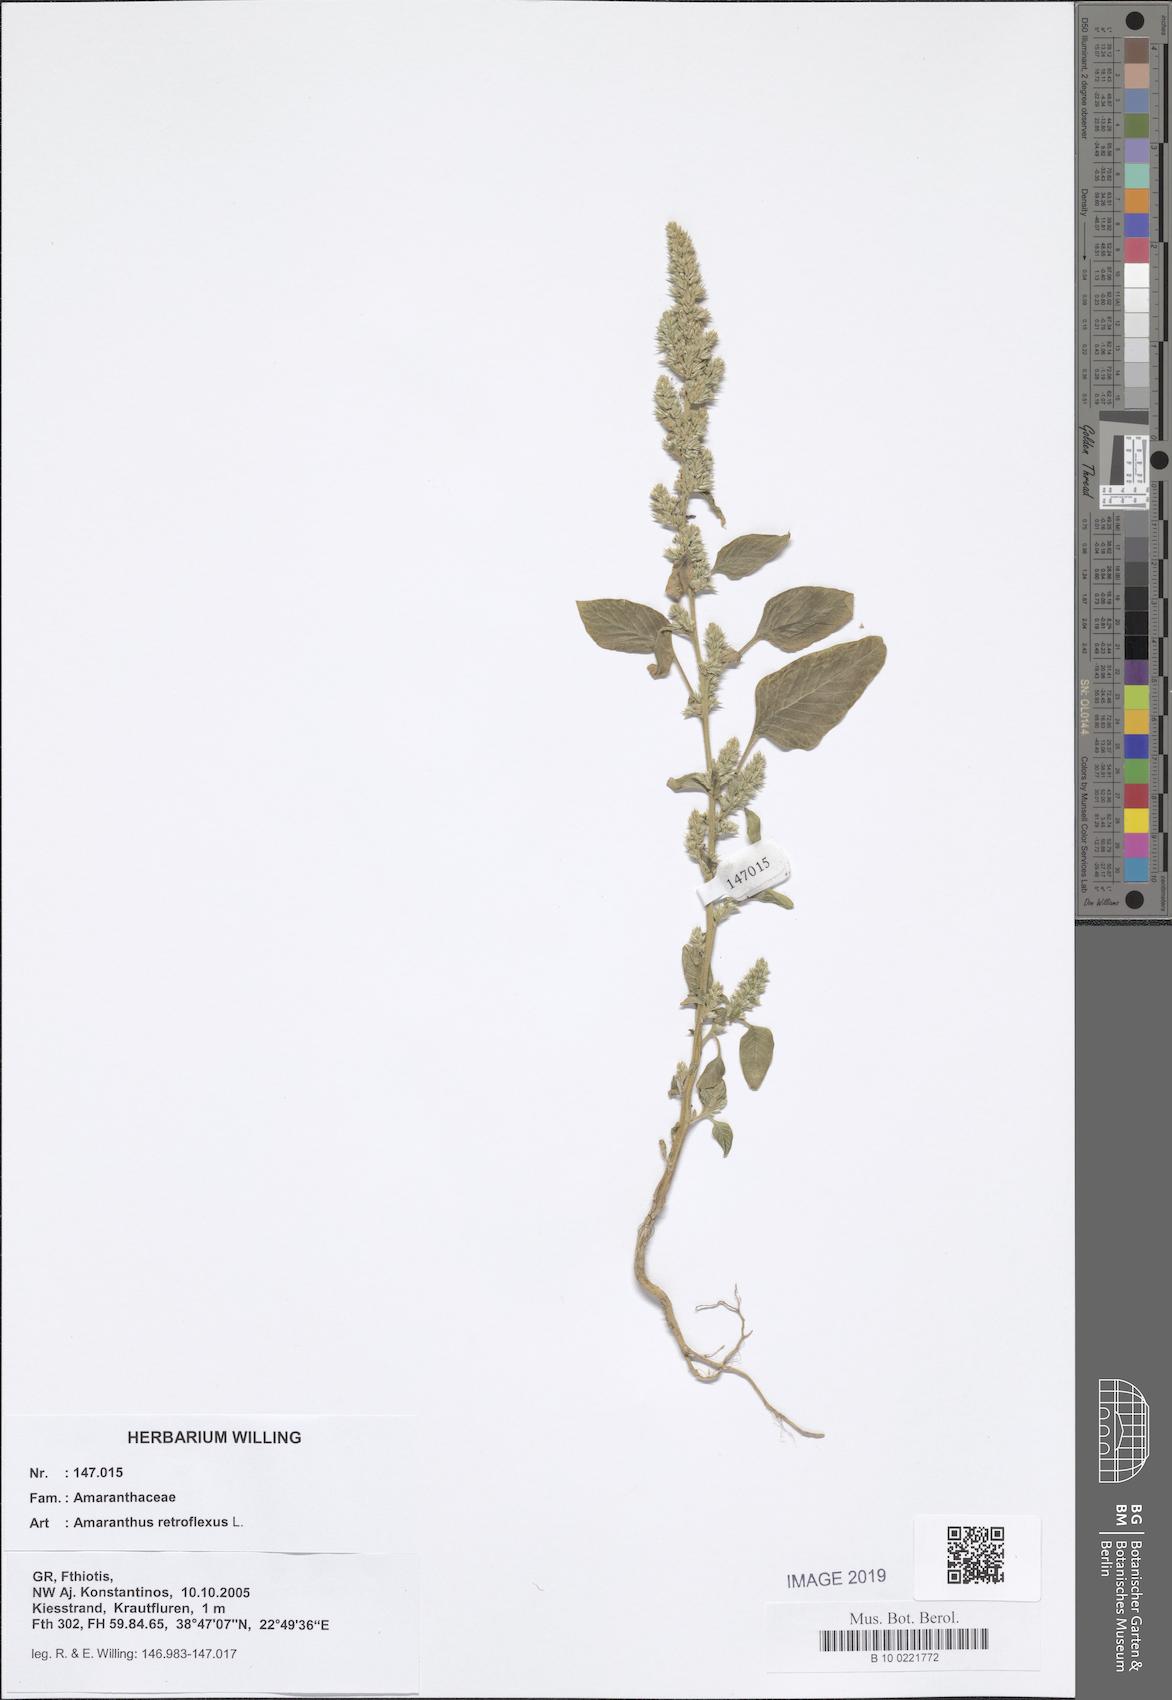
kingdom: Plantae
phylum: Tracheophyta
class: Magnoliopsida
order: Caryophyllales
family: Amaranthaceae
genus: Amaranthus
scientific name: Amaranthus retroflexus
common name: Redroot amaranth
